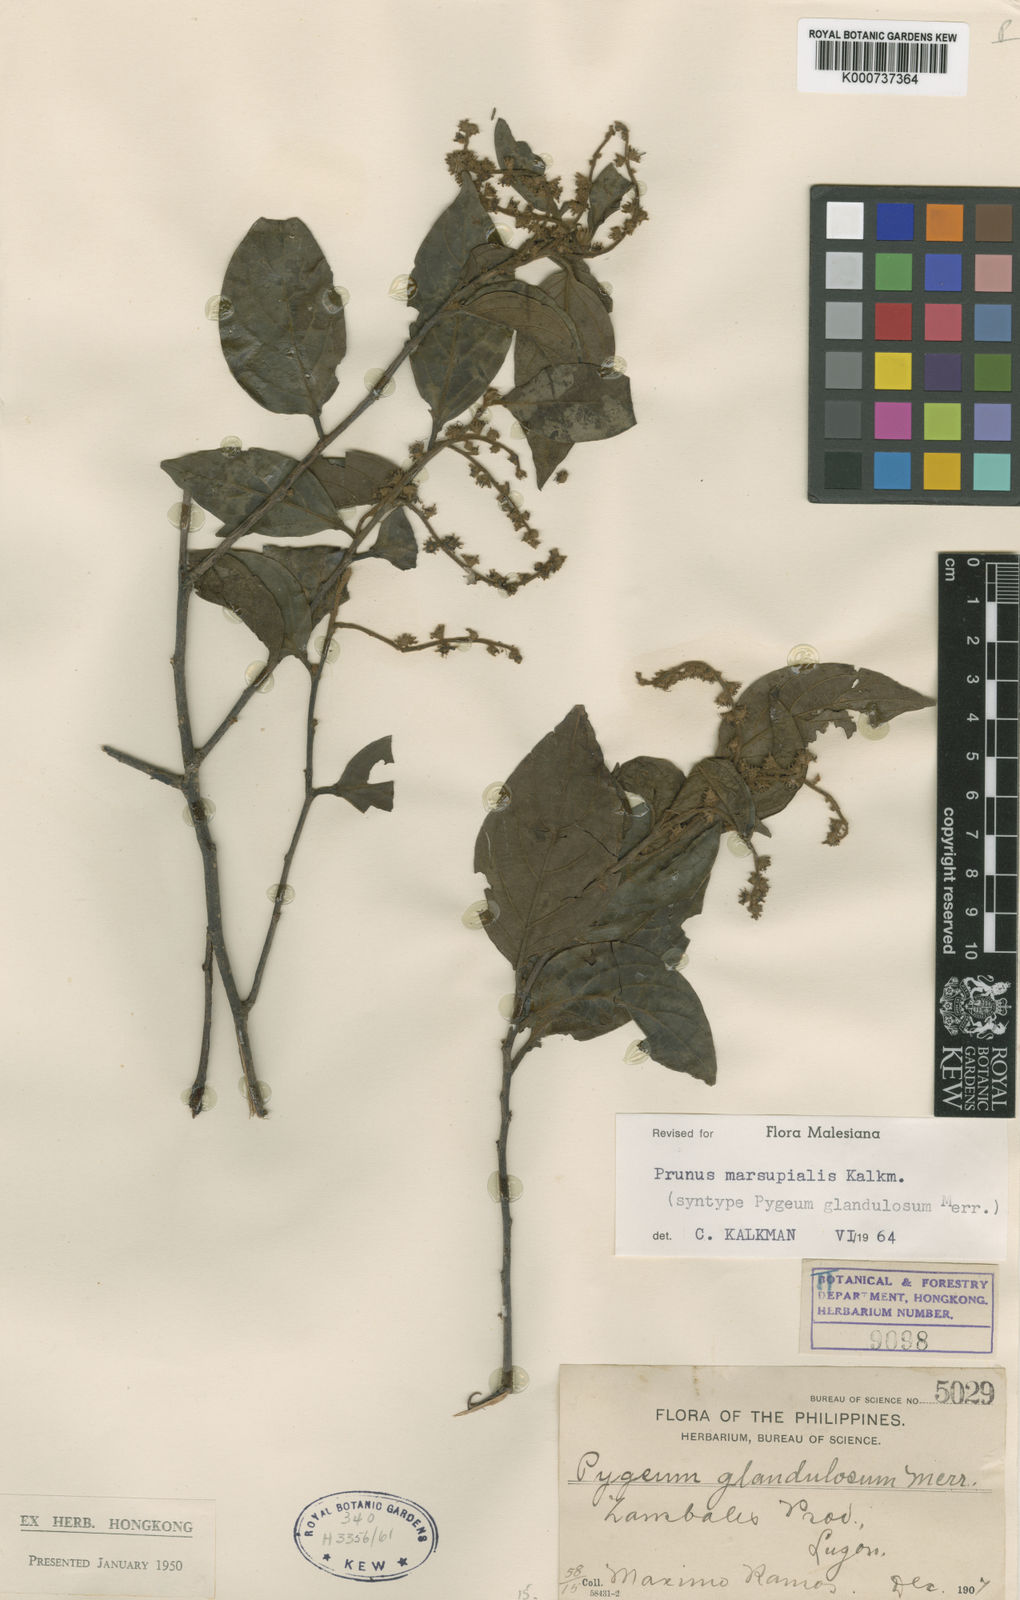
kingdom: Plantae
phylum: Tracheophyta
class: Magnoliopsida
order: Rosales
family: Rosaceae
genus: Prunus
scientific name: Prunus marsupialis
